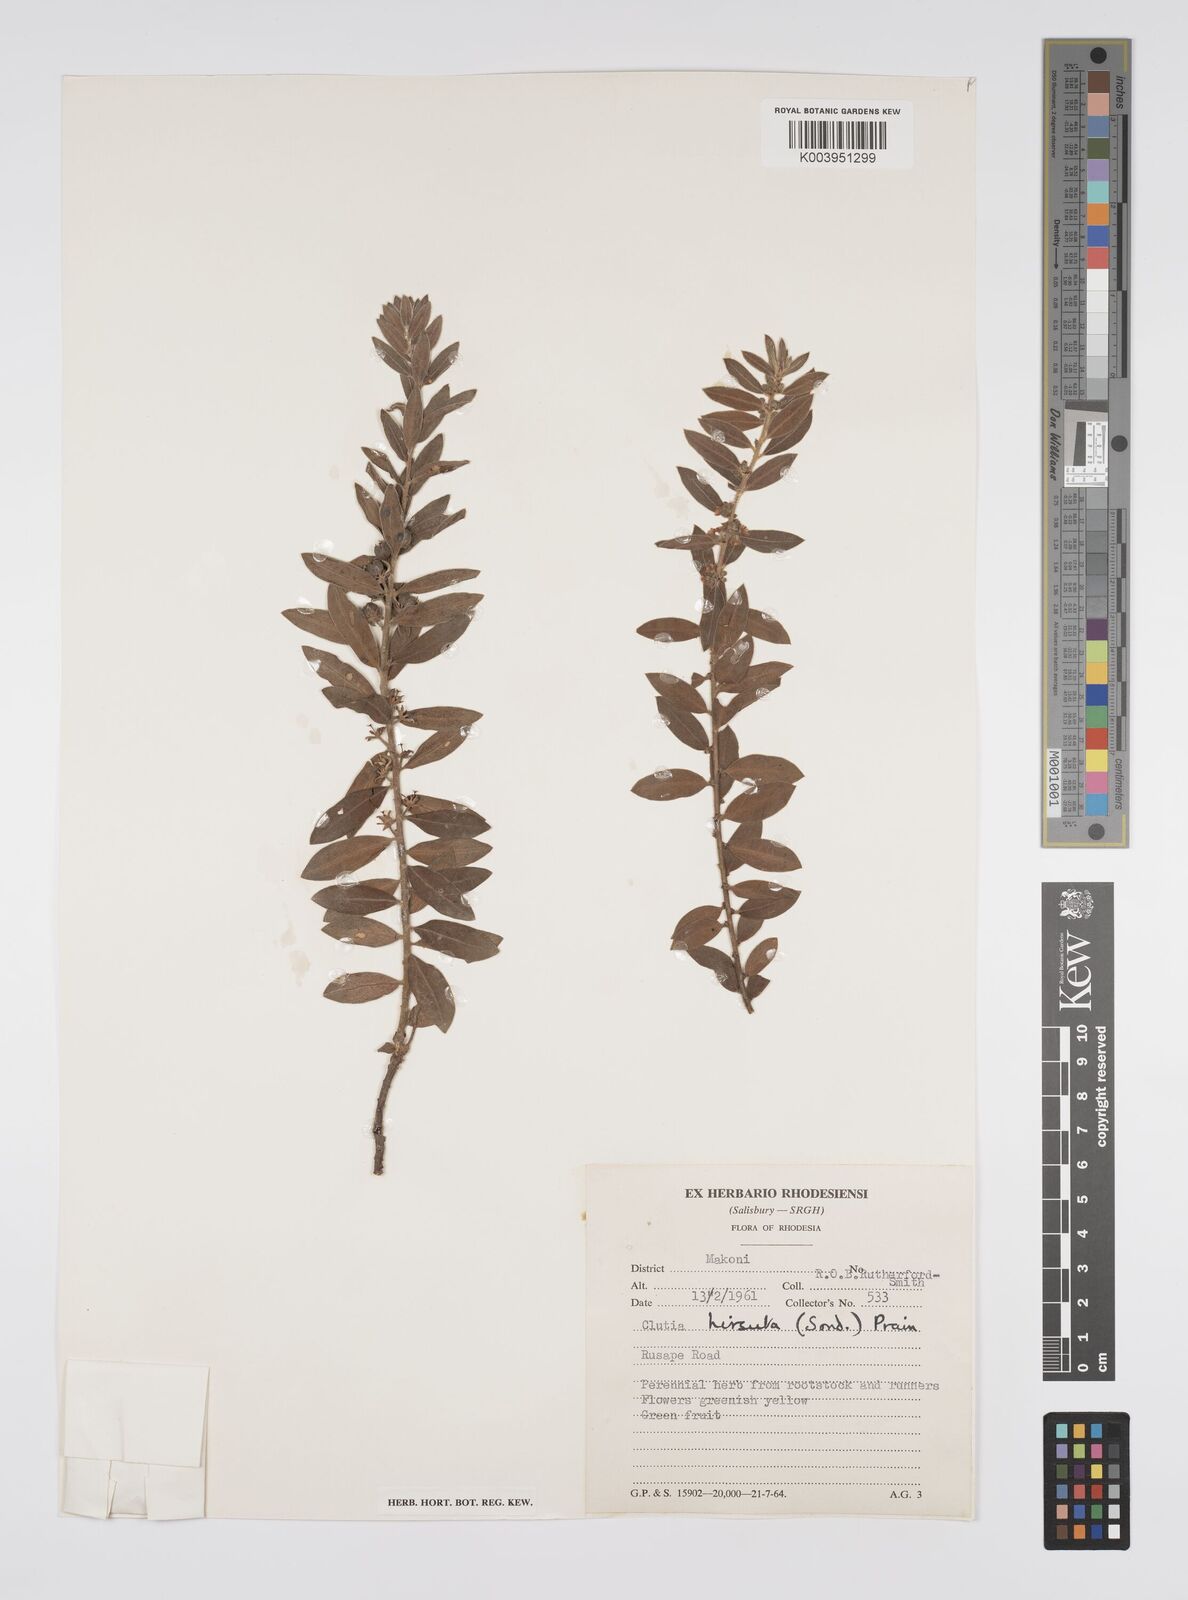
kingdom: Plantae
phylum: Tracheophyta
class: Magnoliopsida
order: Malpighiales
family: Peraceae
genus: Clutia
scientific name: Clutia hirsuta
